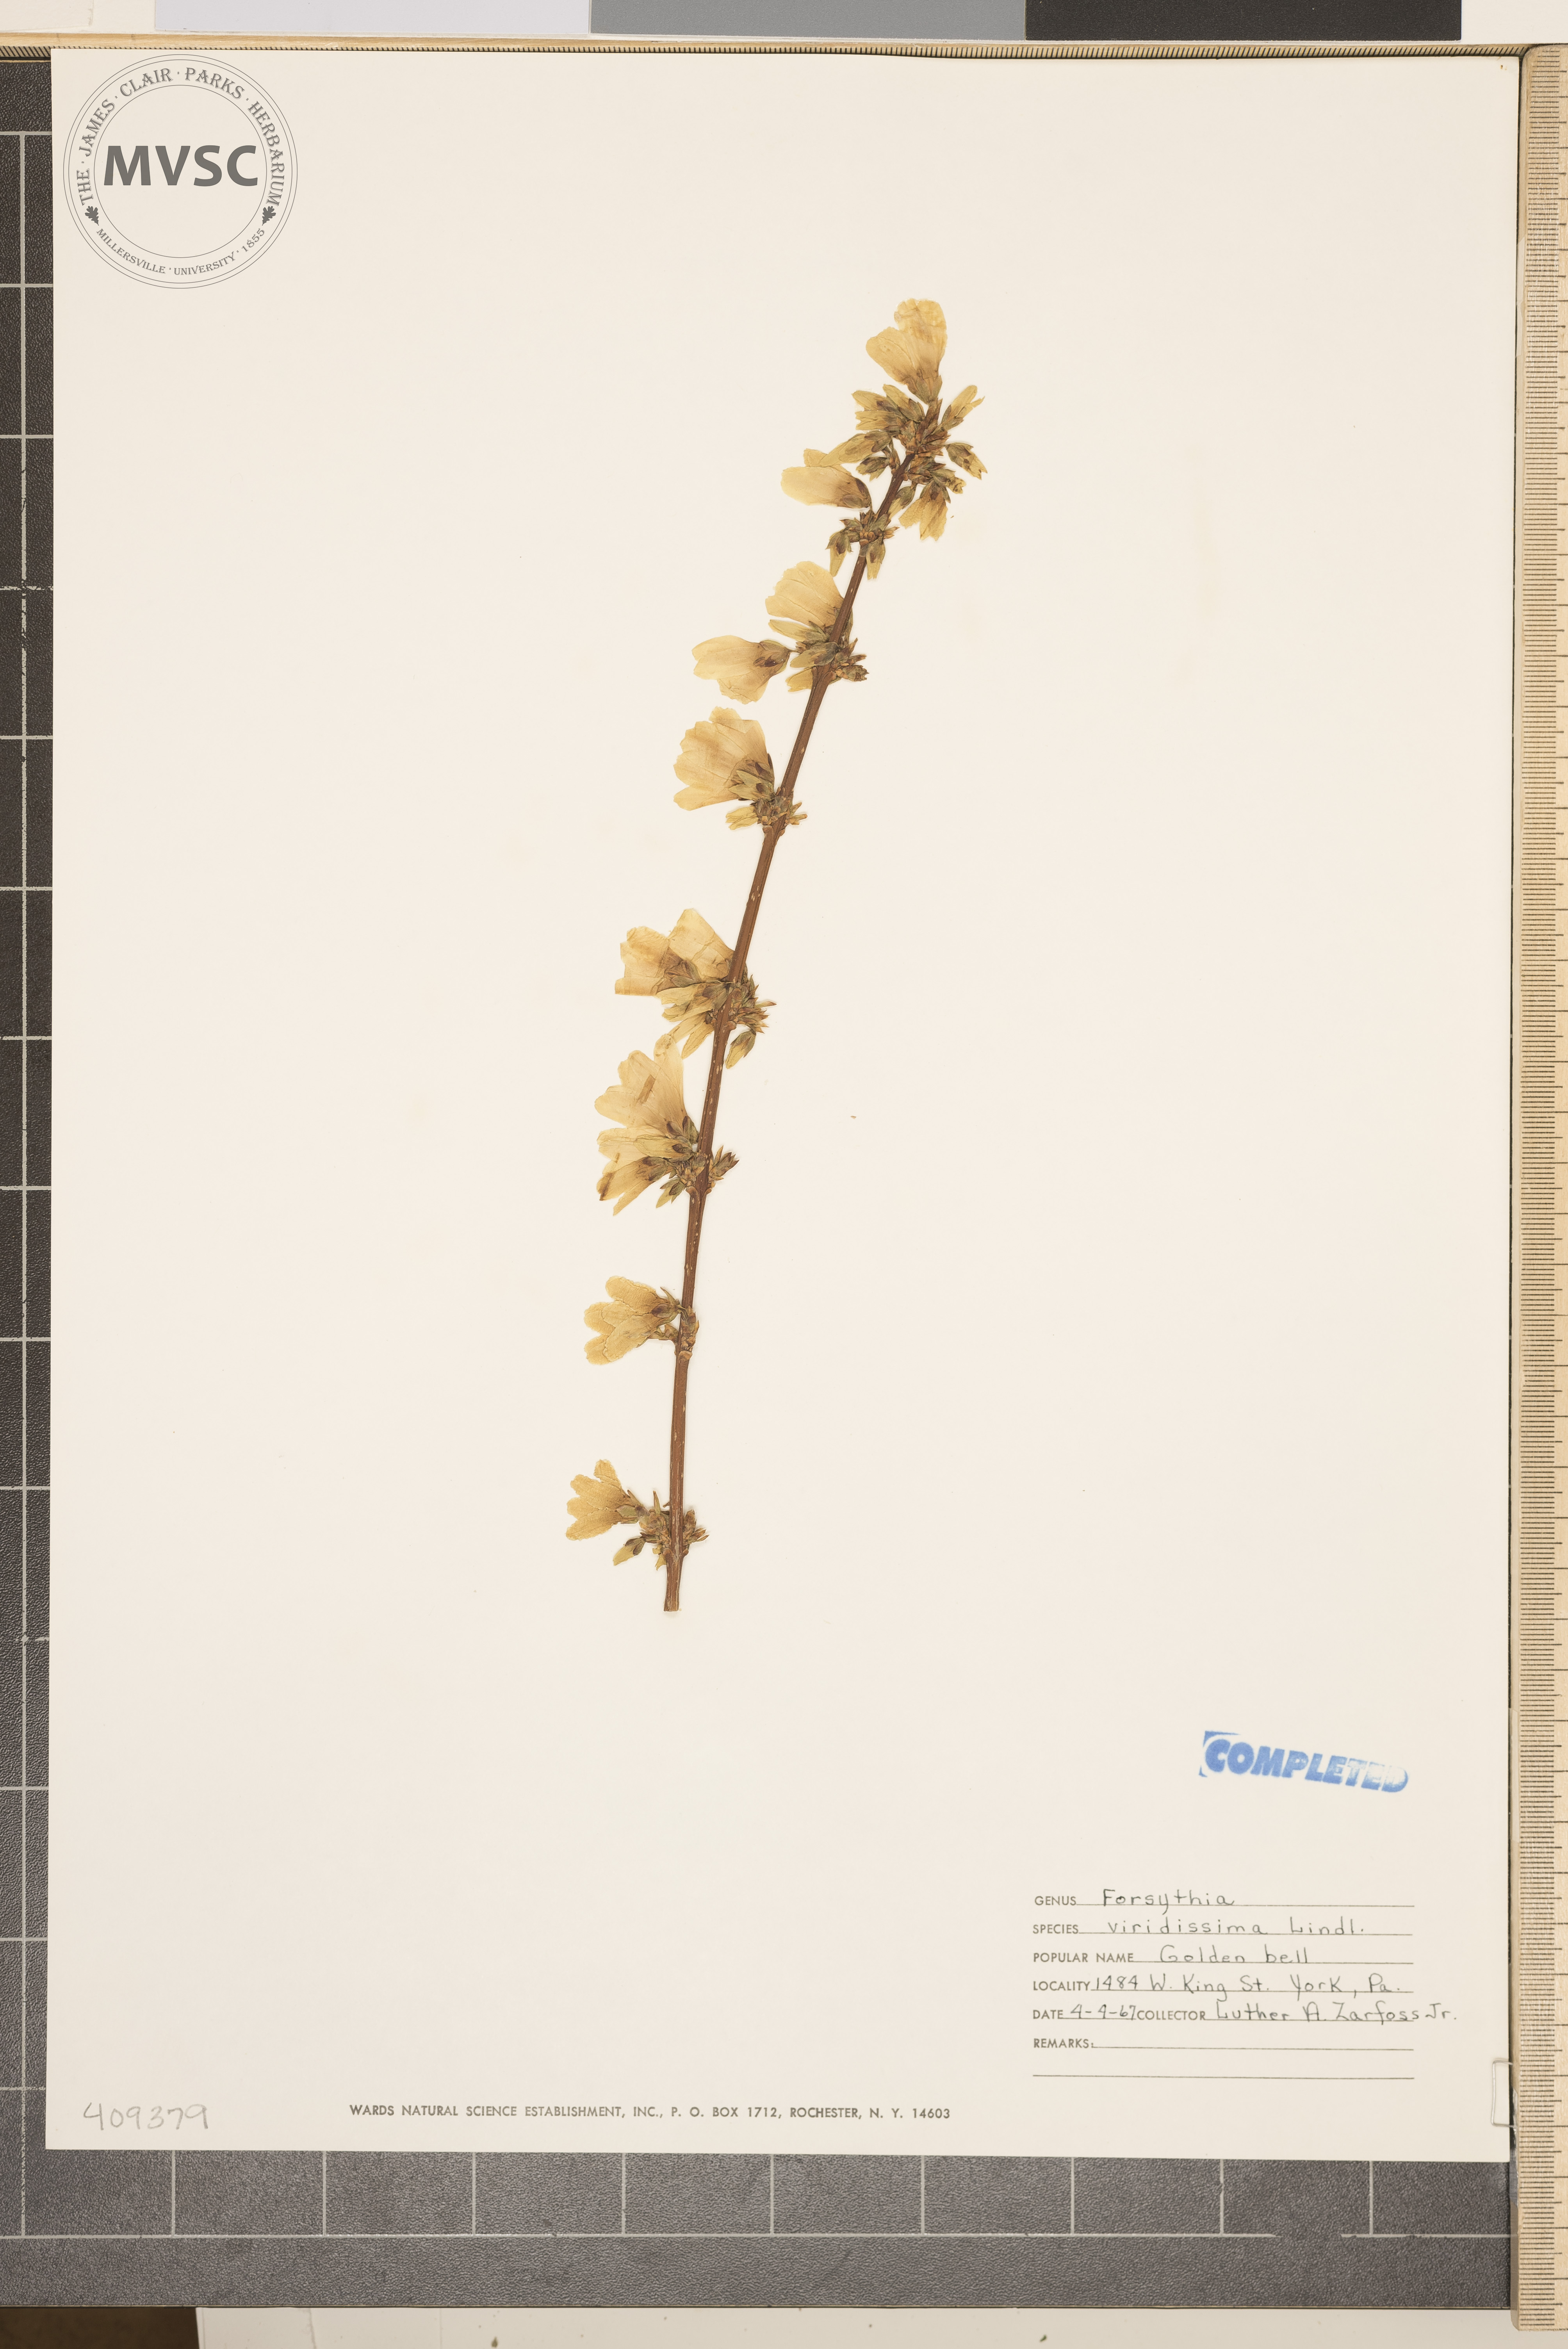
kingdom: Plantae
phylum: Tracheophyta
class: Magnoliopsida
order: Lamiales
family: Oleaceae
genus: Forsythia
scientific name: Forsythia viridissima
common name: Greenstem forsythia
